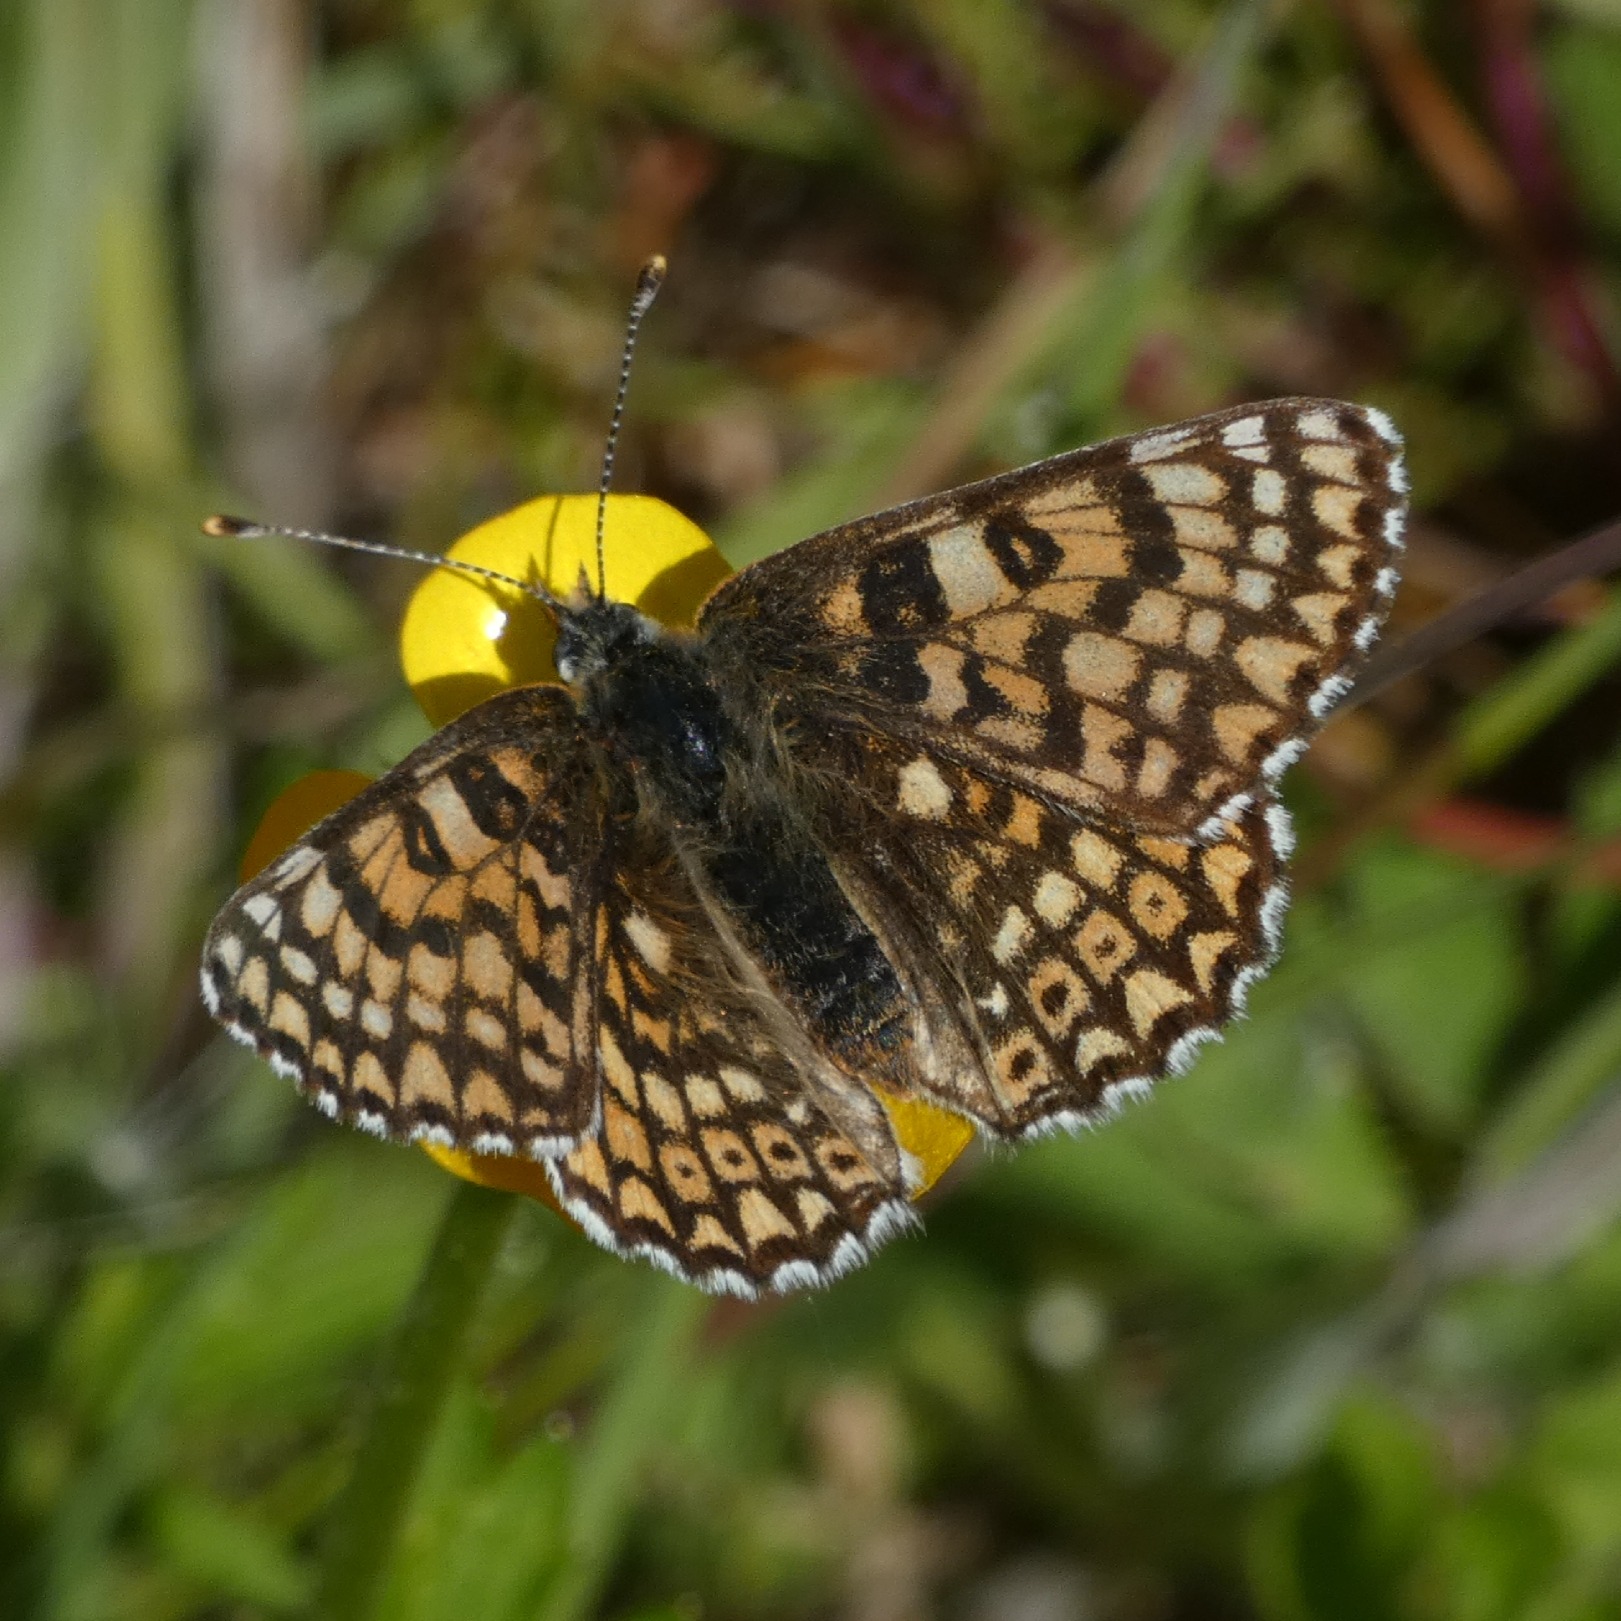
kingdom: Animalia
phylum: Arthropoda
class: Insecta
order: Lepidoptera
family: Nymphalidae
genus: Melitaea
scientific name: Melitaea cinxia
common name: Okkergul pletvinge
